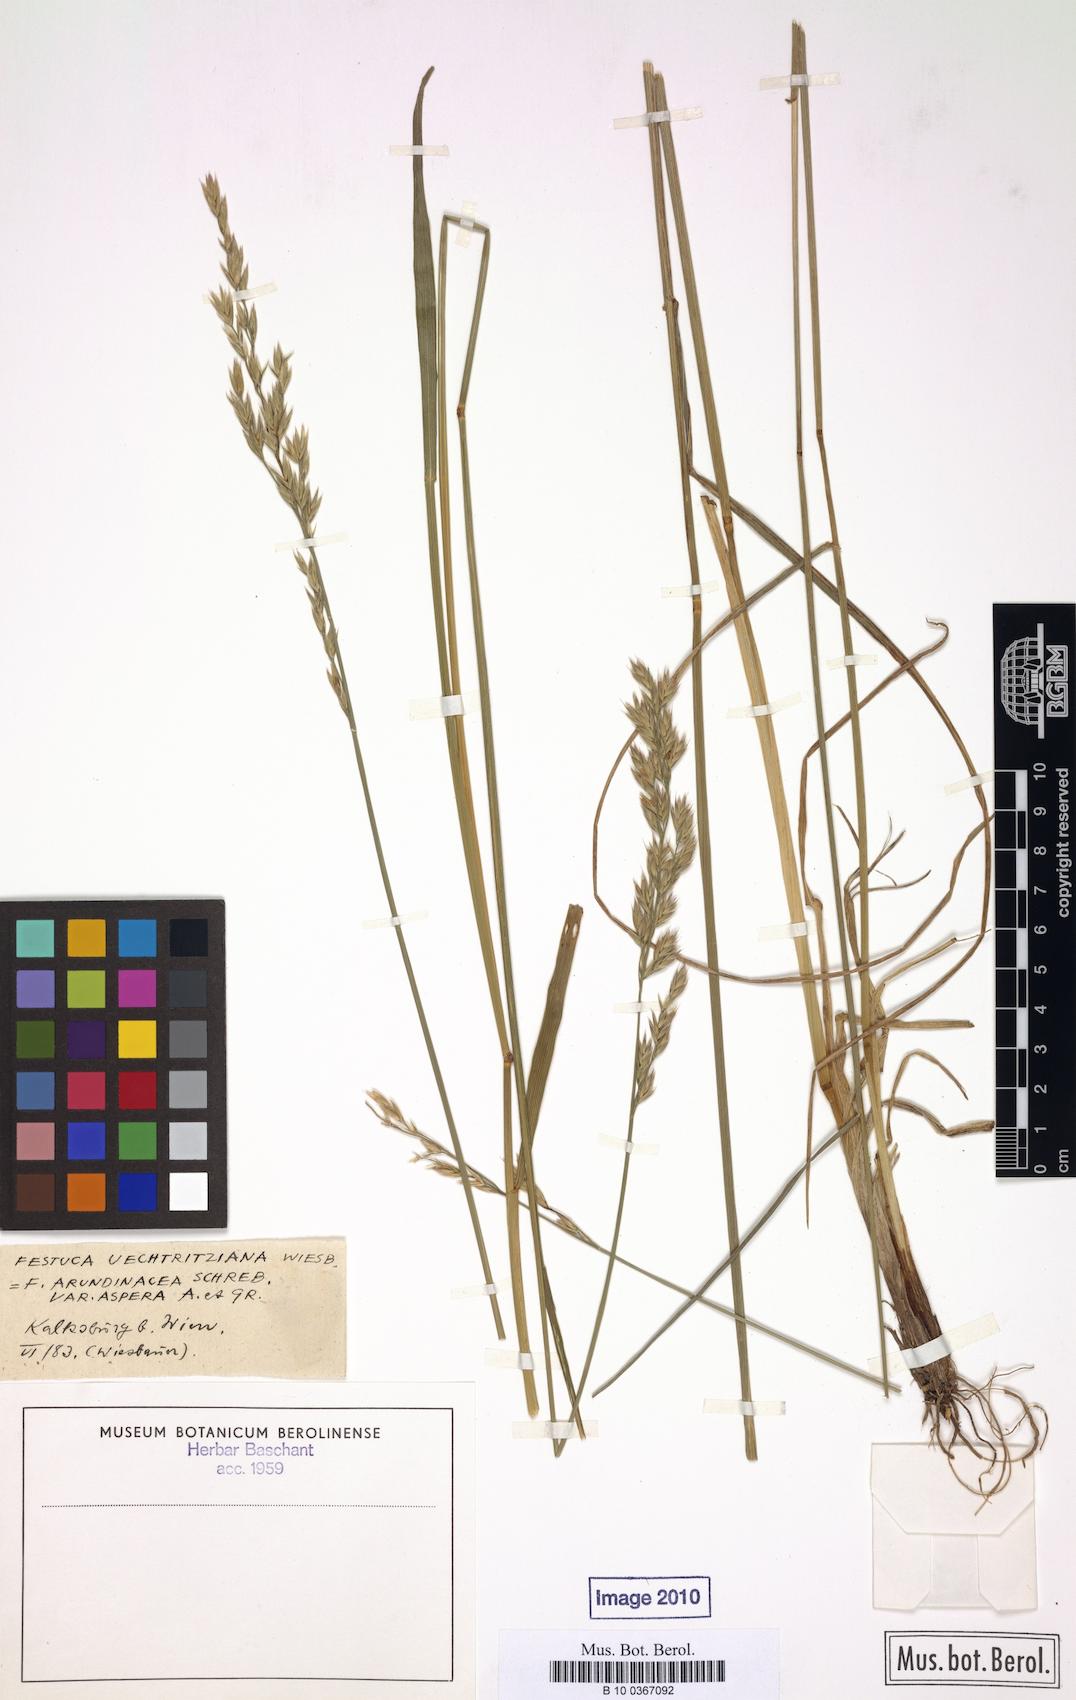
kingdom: Plantae
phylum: Tracheophyta
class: Liliopsida
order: Poales
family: Poaceae
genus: Lolium
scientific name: Lolium arundinaceum
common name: Reed fescue
